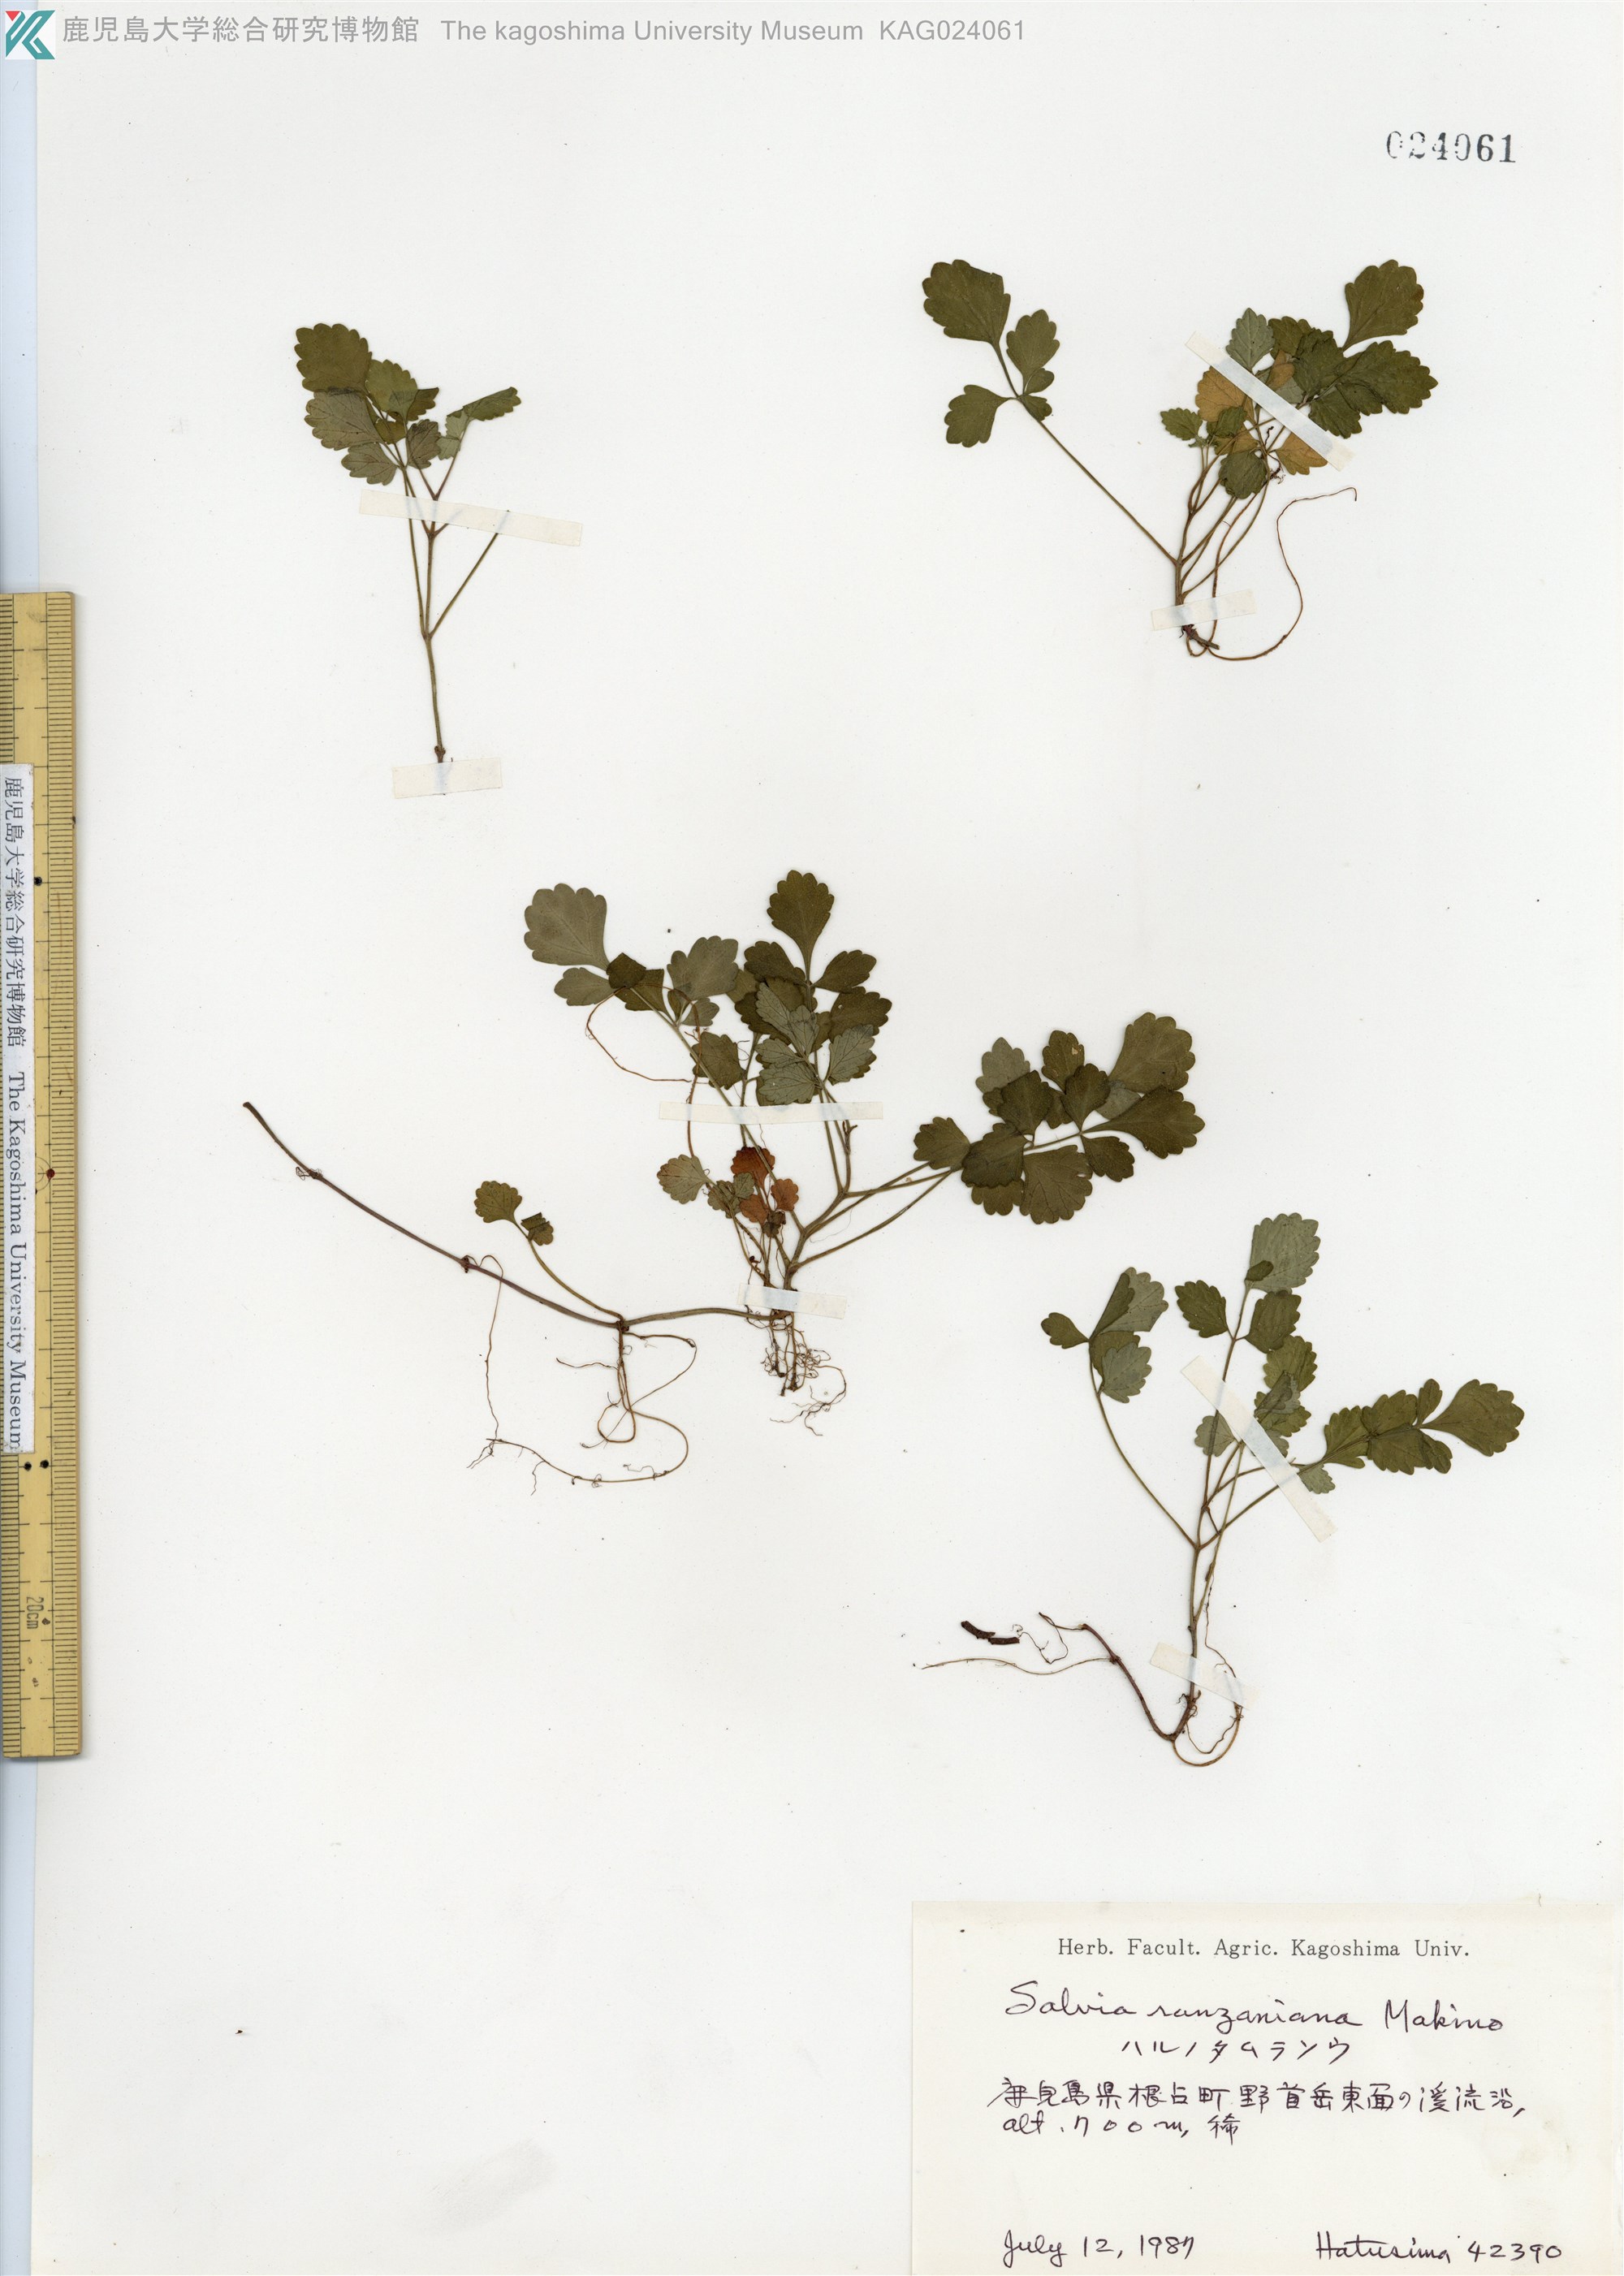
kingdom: Plantae
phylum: Tracheophyta
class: Magnoliopsida
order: Lamiales
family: Lamiaceae
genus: Salvia
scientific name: Salvia ranzaniana
